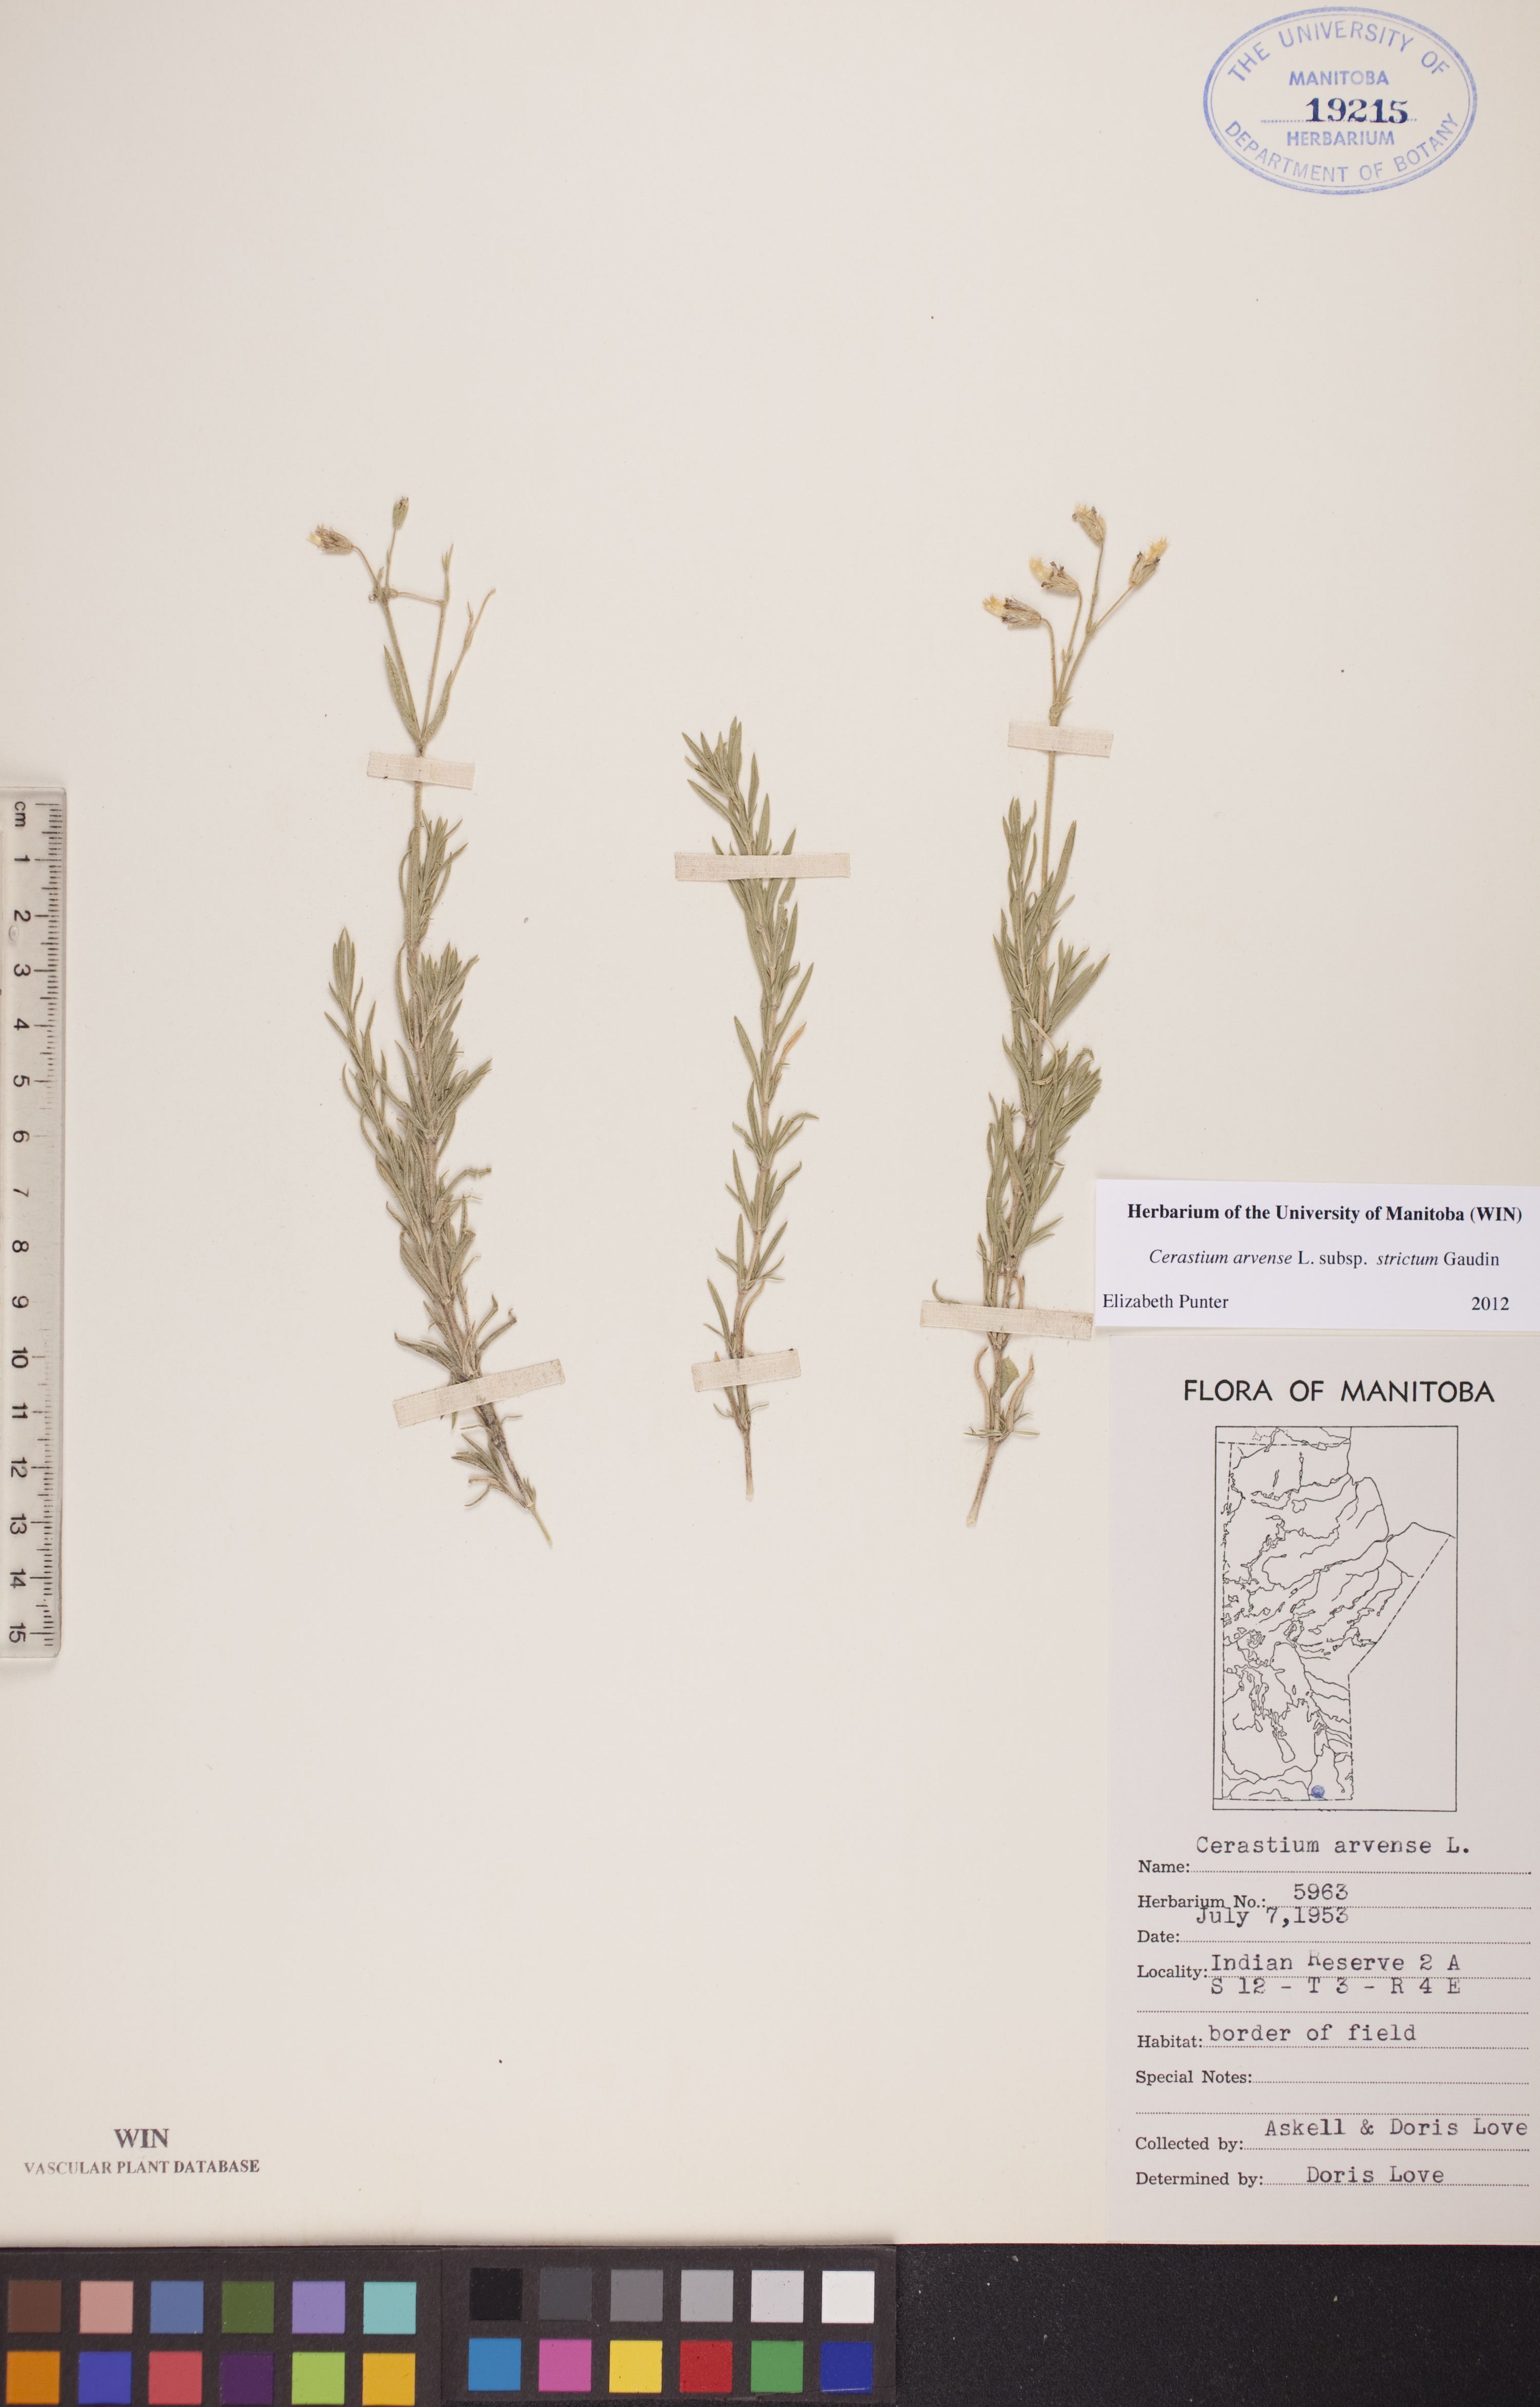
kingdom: Plantae
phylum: Tracheophyta
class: Magnoliopsida
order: Caryophyllales
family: Caryophyllaceae
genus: Cerastium
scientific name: Cerastium elongatum
